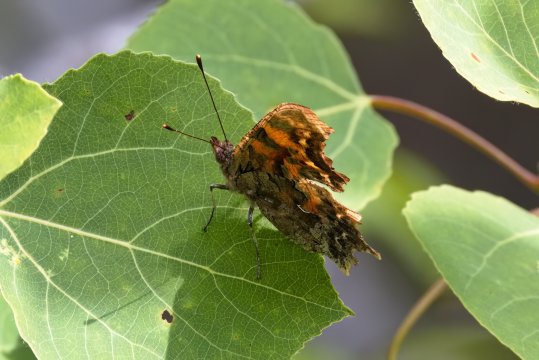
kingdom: Animalia
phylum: Arthropoda
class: Insecta
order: Lepidoptera
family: Nymphalidae
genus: Polygonia
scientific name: Polygonia faunus
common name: Green Comma
